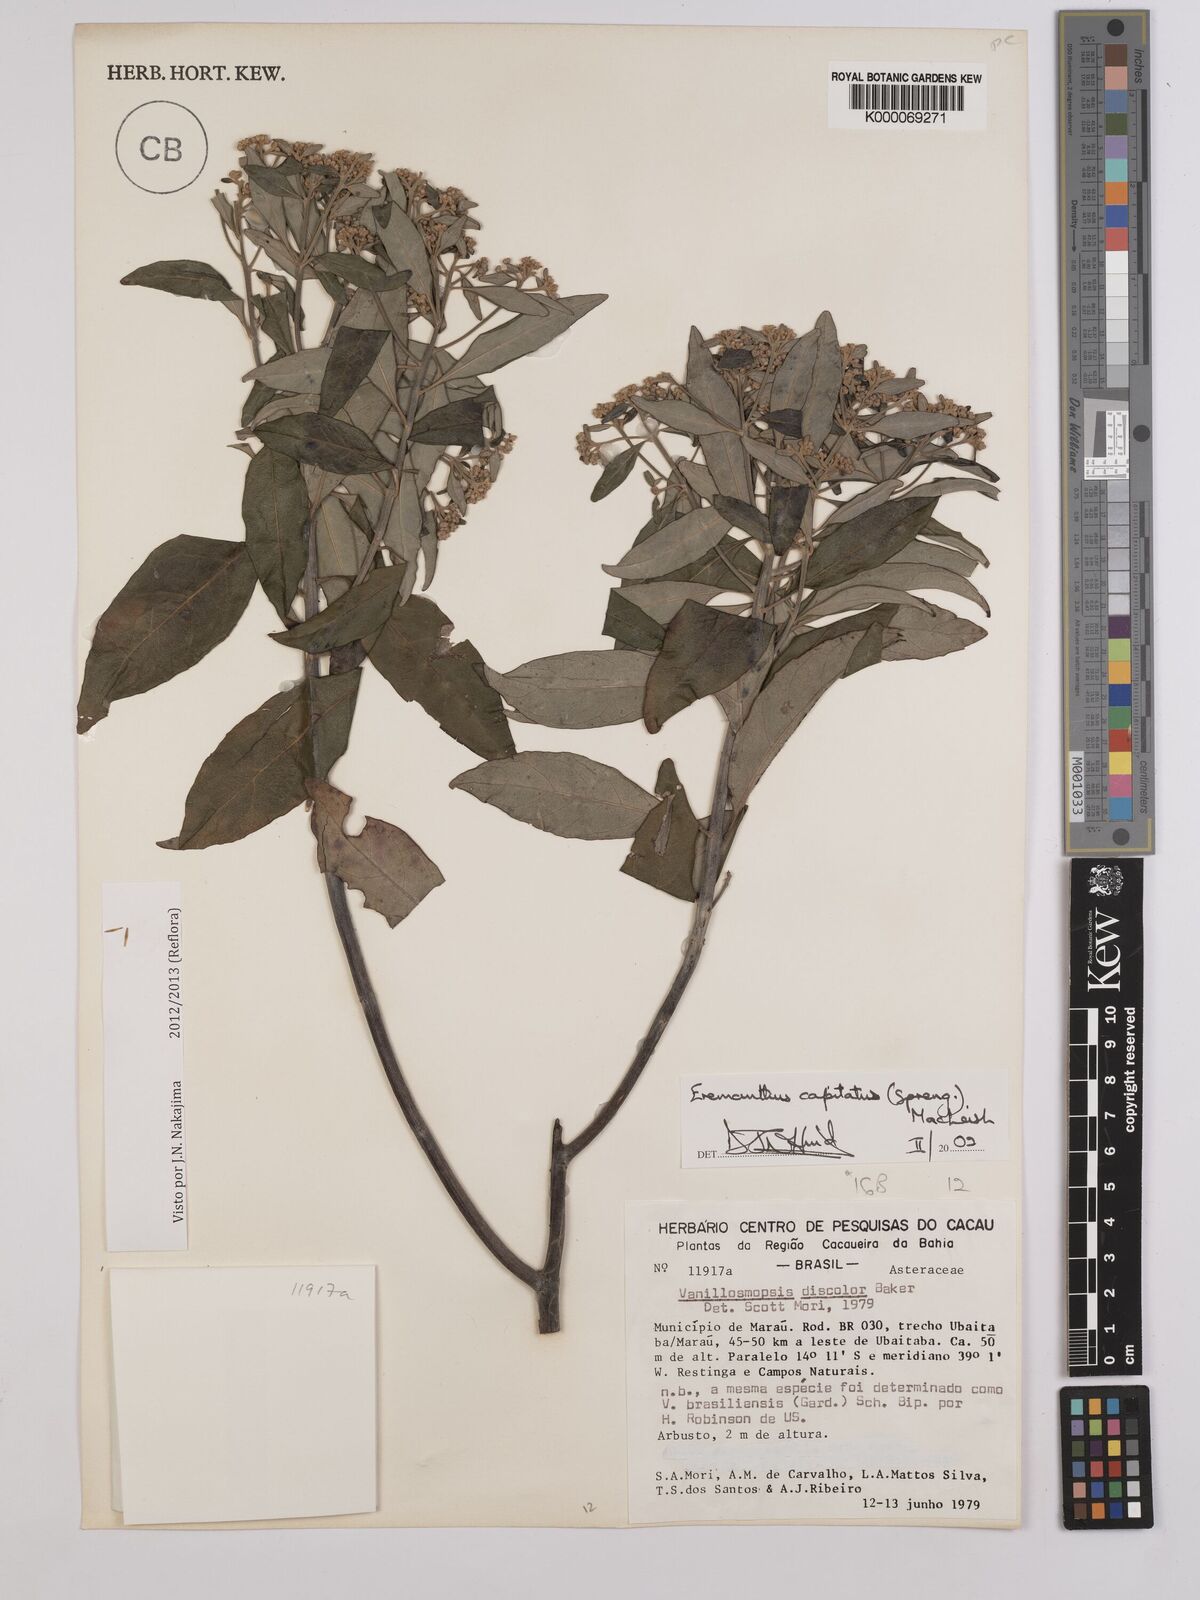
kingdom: Plantae
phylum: Tracheophyta
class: Magnoliopsida
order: Asterales
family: Asteraceae
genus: Eremanthus
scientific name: Eremanthus capitatus
